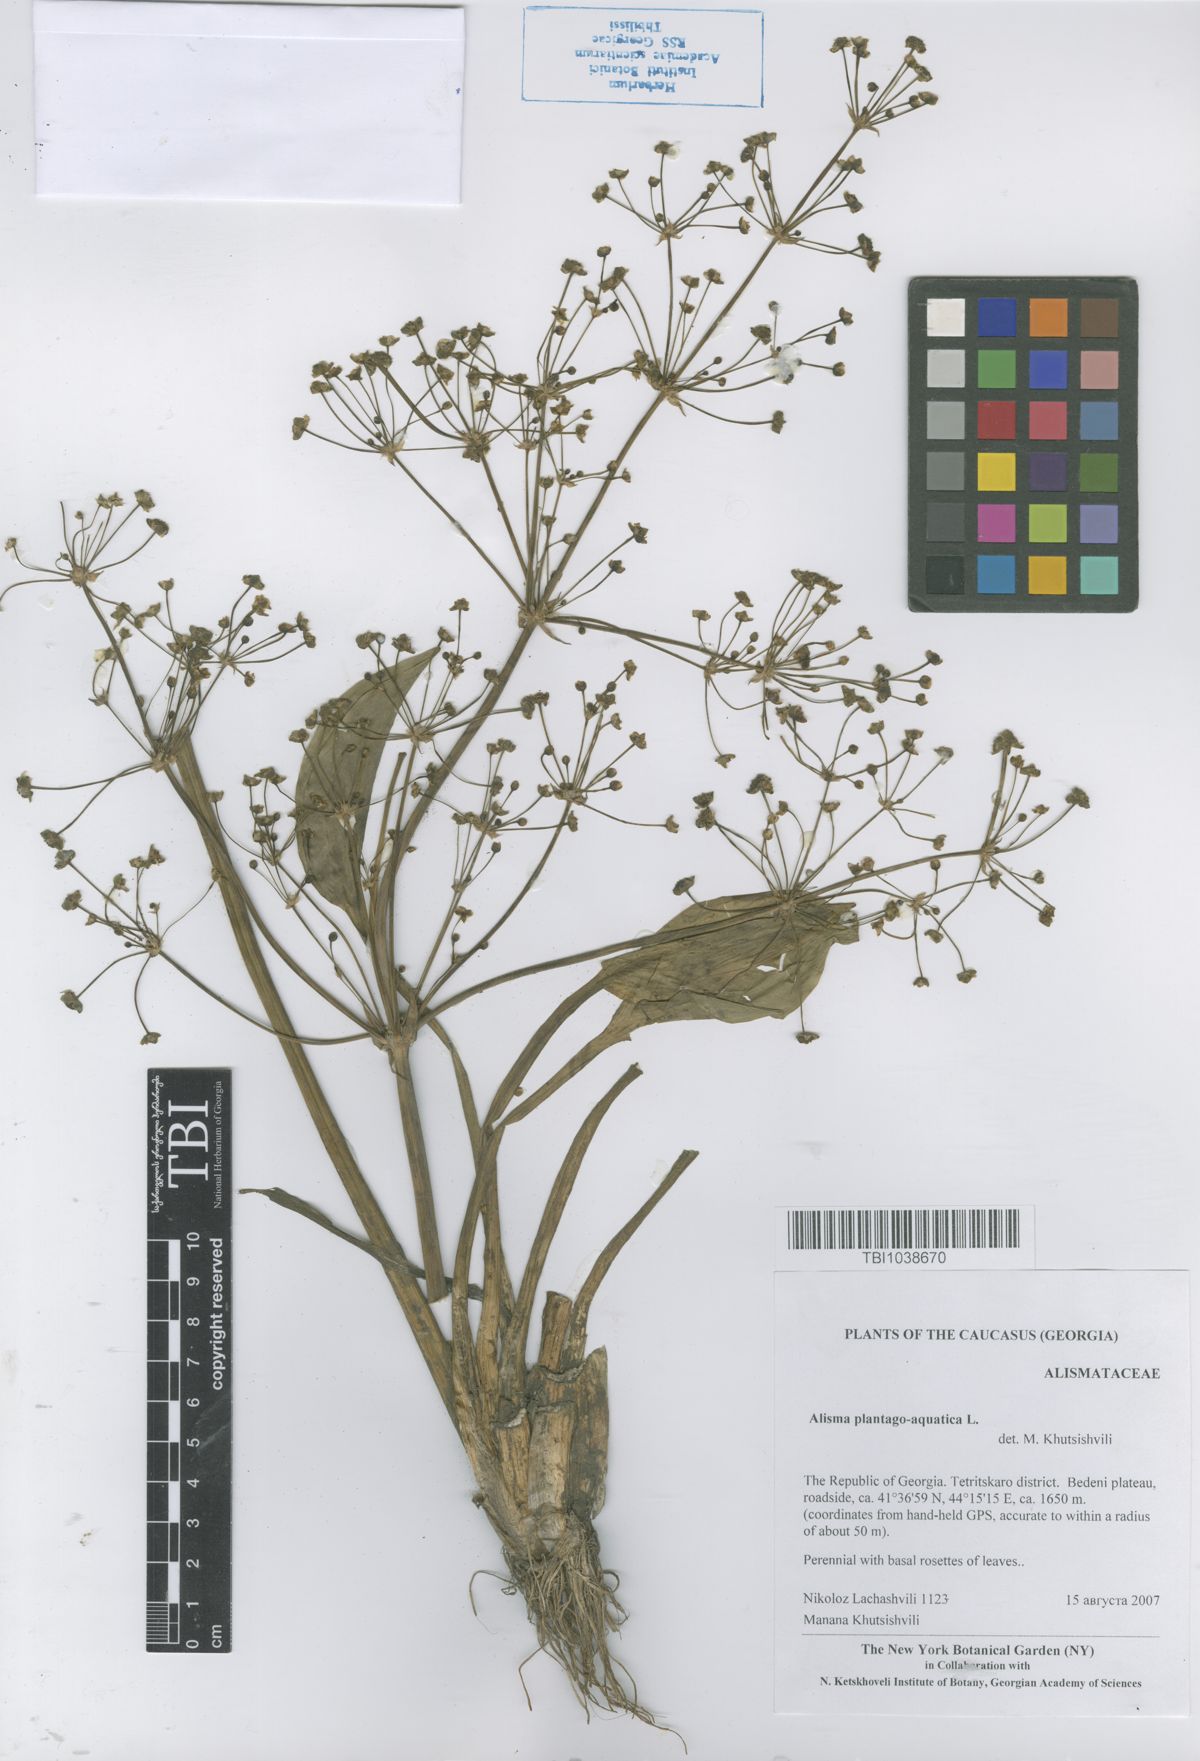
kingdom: Plantae
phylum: Tracheophyta
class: Liliopsida
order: Alismatales
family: Alismataceae
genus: Alisma
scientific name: Alisma plantago-aquatica
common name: Water-plantain
